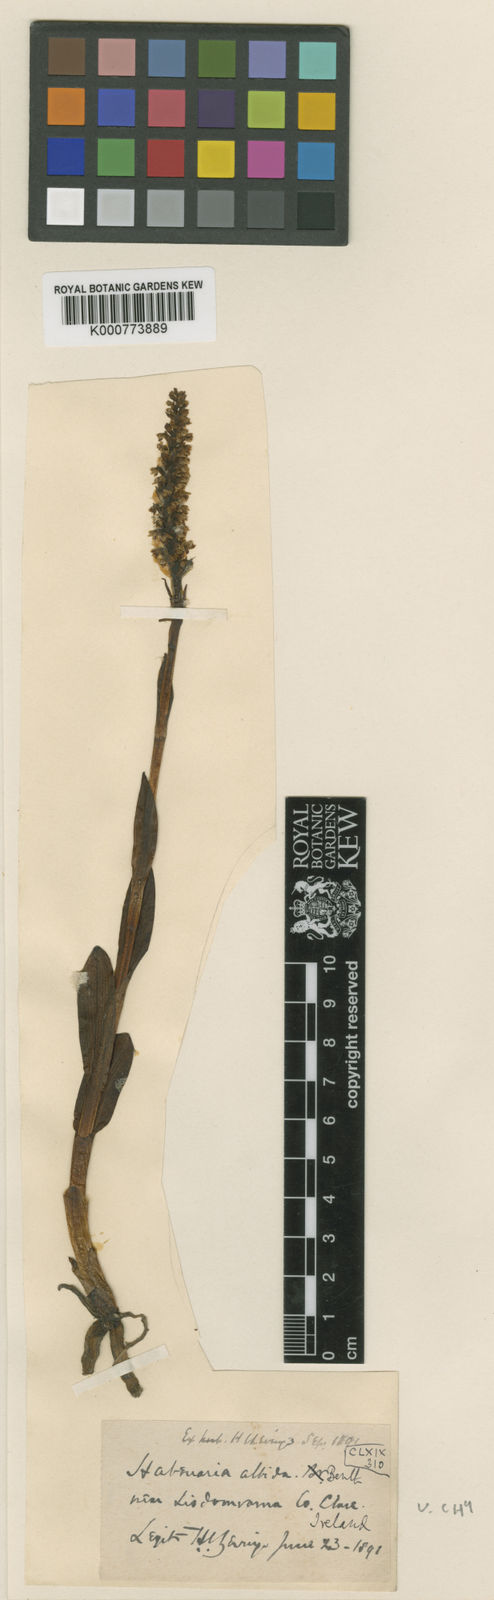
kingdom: Plantae
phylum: Tracheophyta
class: Liliopsida
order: Asparagales
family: Orchidaceae
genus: Pseudorchis
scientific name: Pseudorchis
